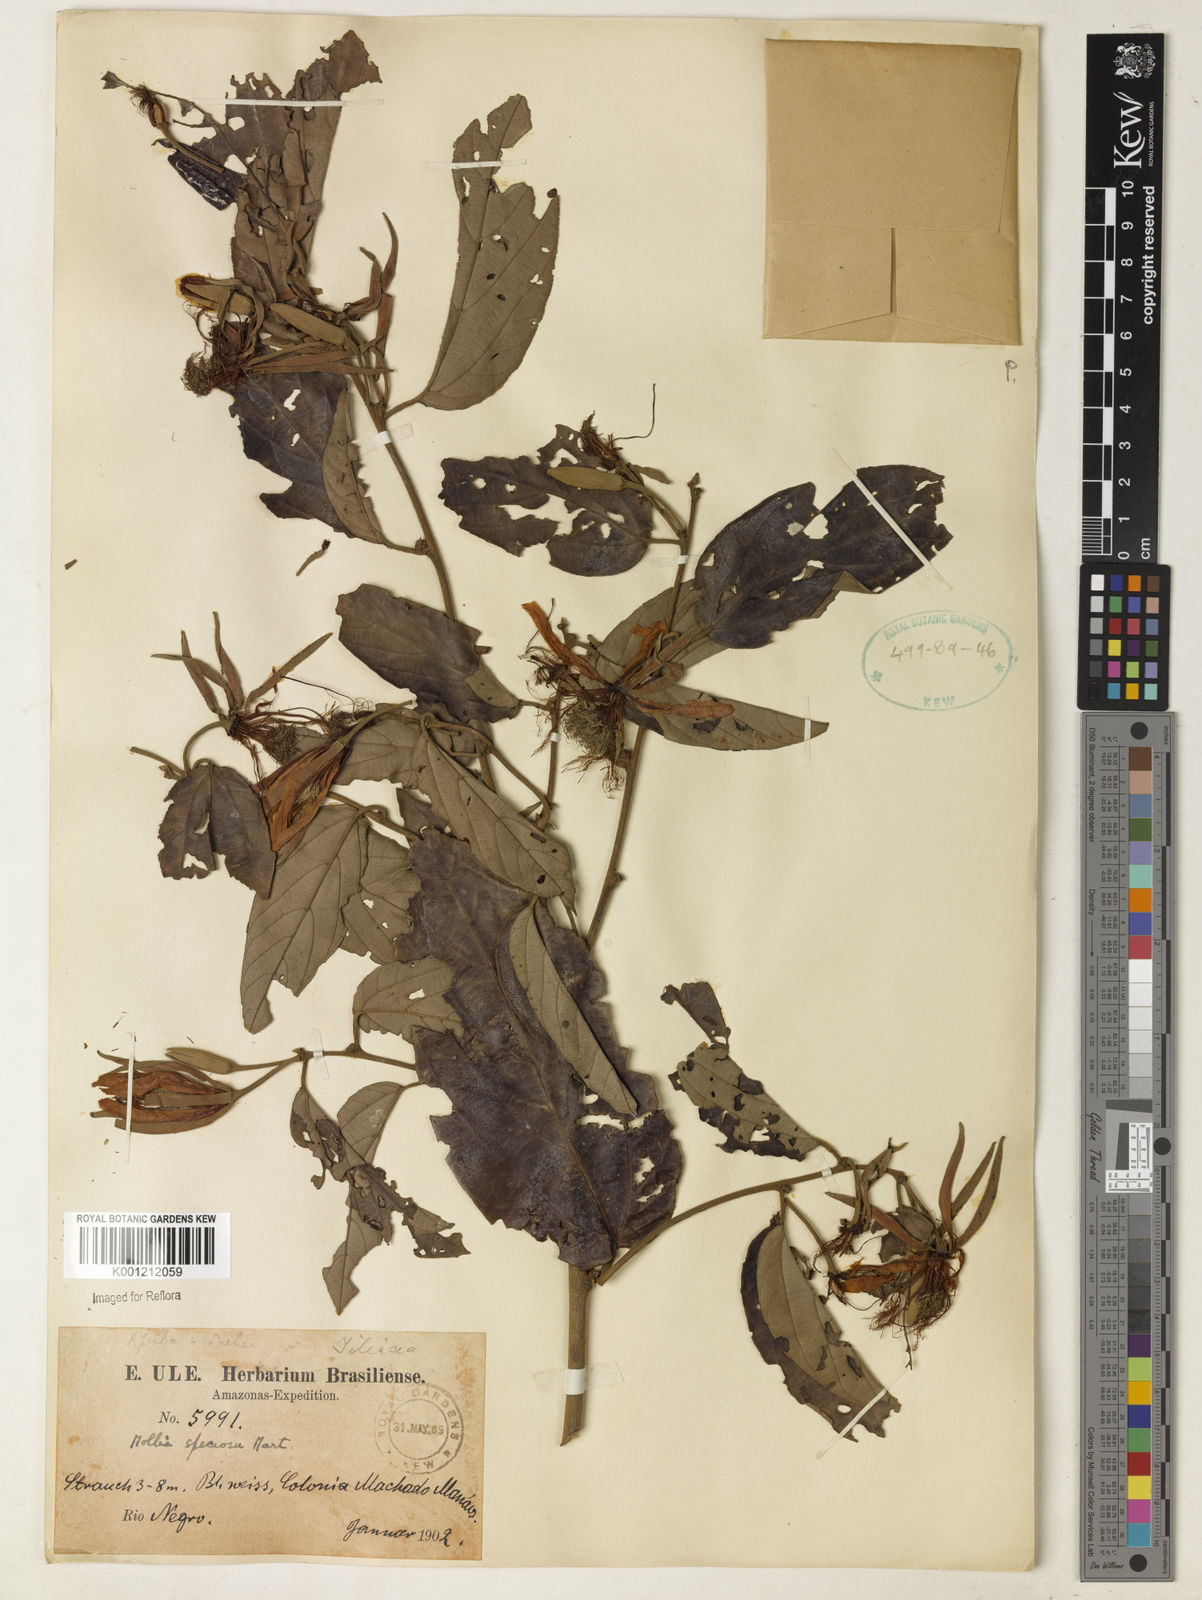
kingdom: Plantae
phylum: Tracheophyta
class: Magnoliopsida
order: Malvales
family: Malvaceae
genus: Mollia
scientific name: Mollia speciosa
